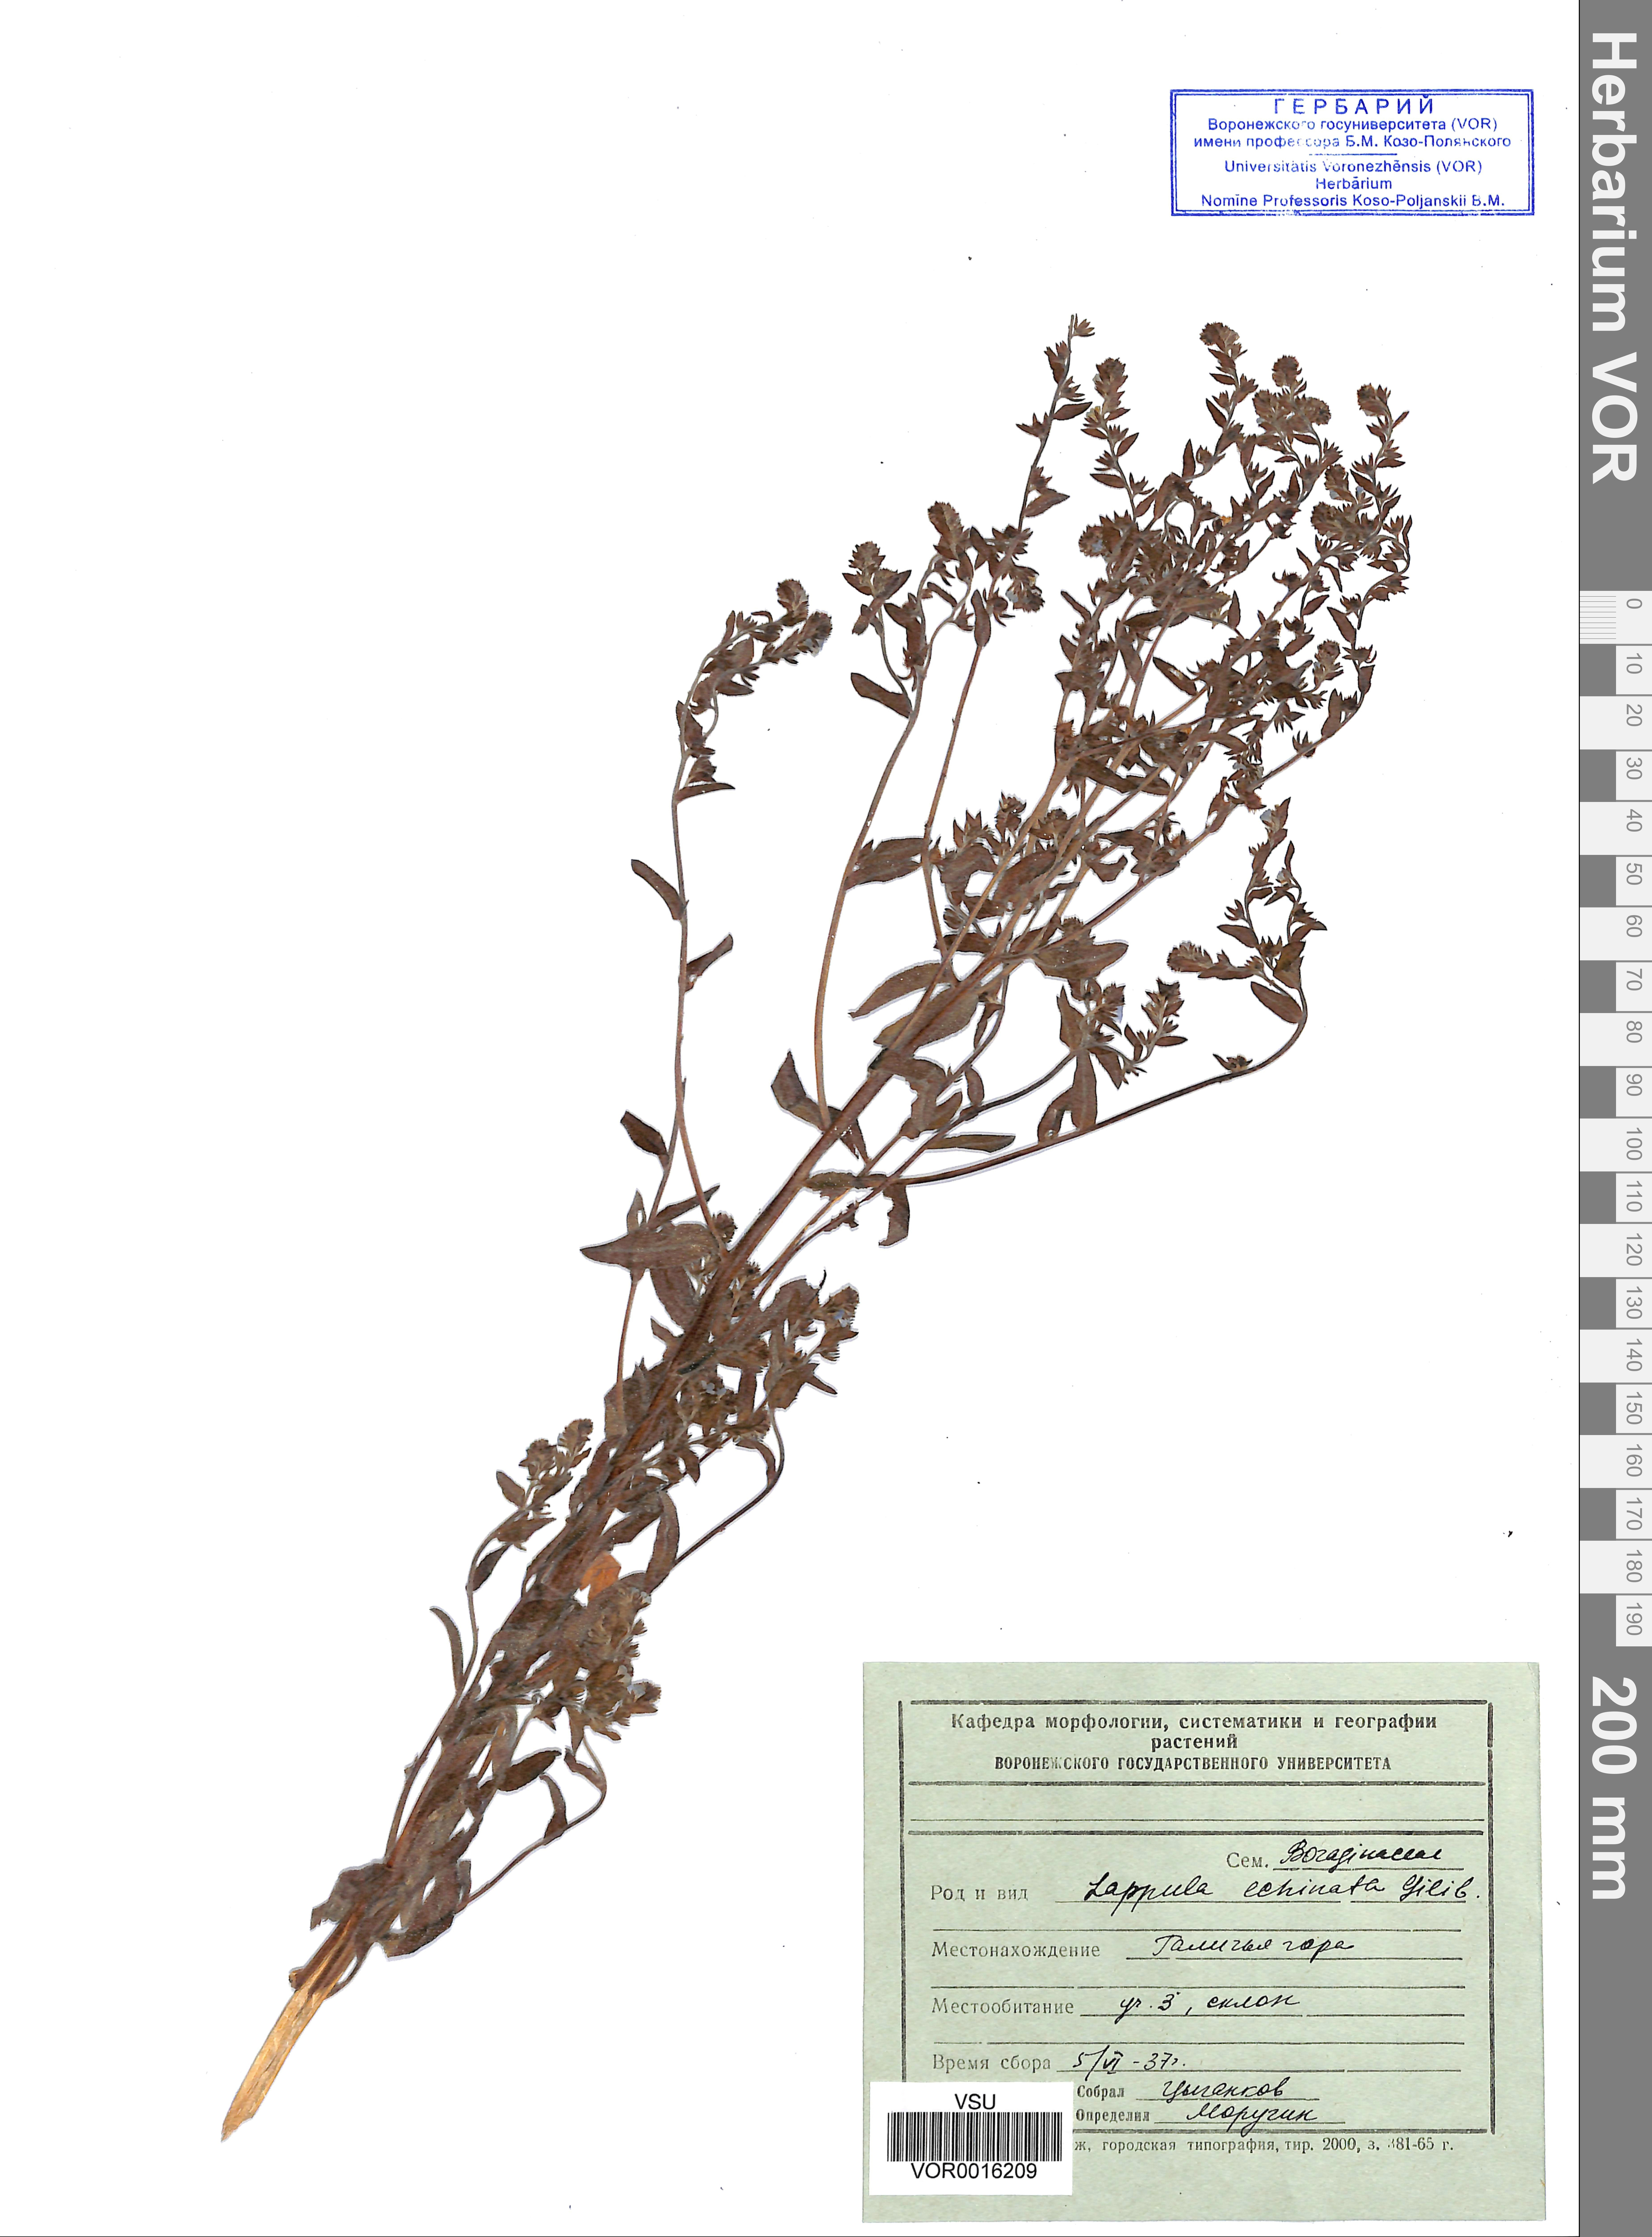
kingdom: Plantae
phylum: Tracheophyta
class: Magnoliopsida
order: Boraginales
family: Boraginaceae
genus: Lappula
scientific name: Lappula squarrosa
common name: European stickseed
